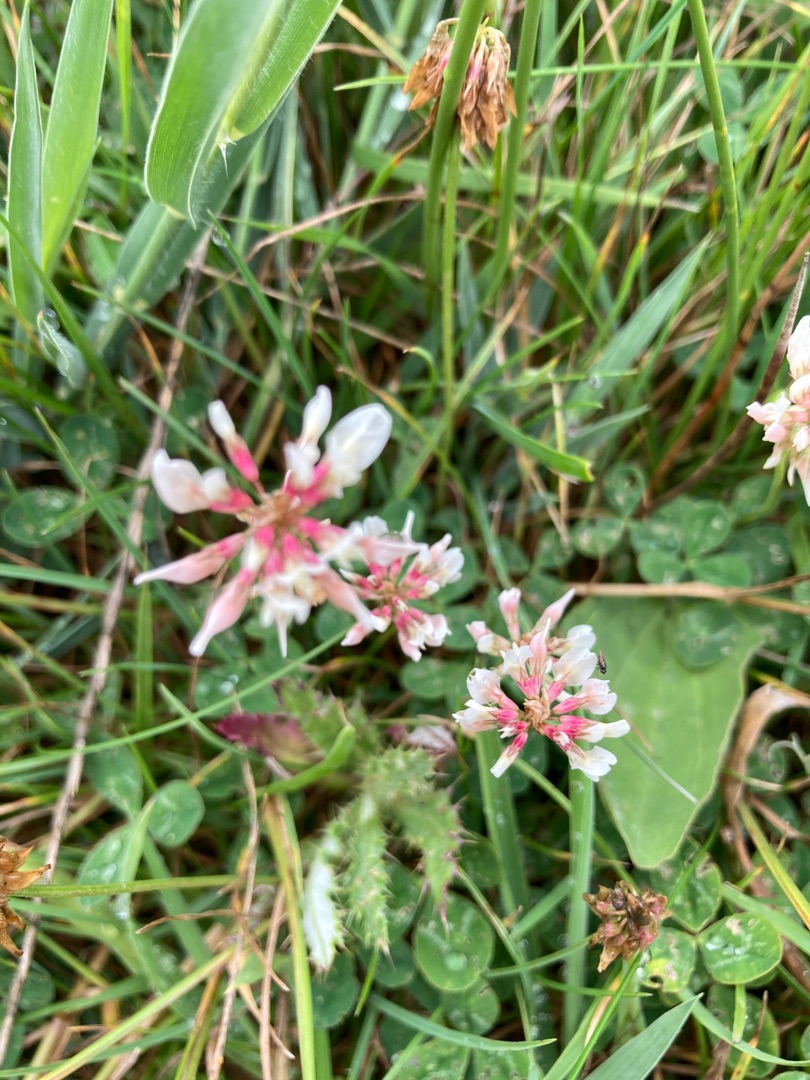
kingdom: Plantae
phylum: Tracheophyta
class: Magnoliopsida
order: Fabales
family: Fabaceae
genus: Trifolium
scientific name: Trifolium repens
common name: Hvid-kløver
